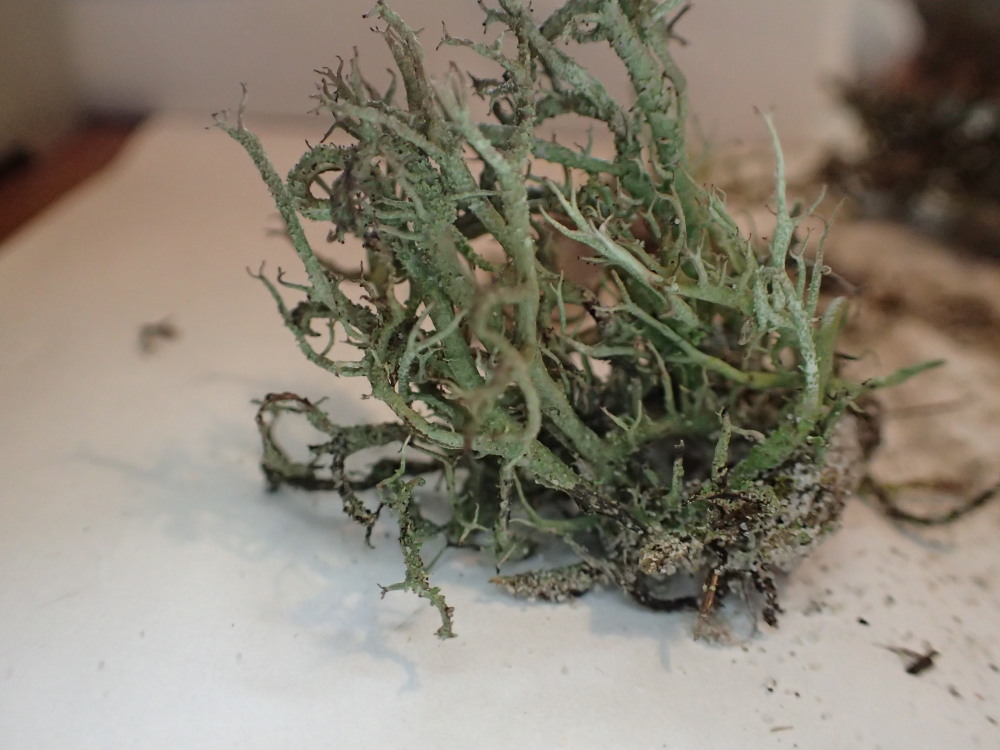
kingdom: Fungi
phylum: Ascomycota
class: Lecanoromycetes
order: Lecanorales
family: Cladoniaceae
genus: Cladonia
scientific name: Cladonia furcata
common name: kløftet bægerlav
